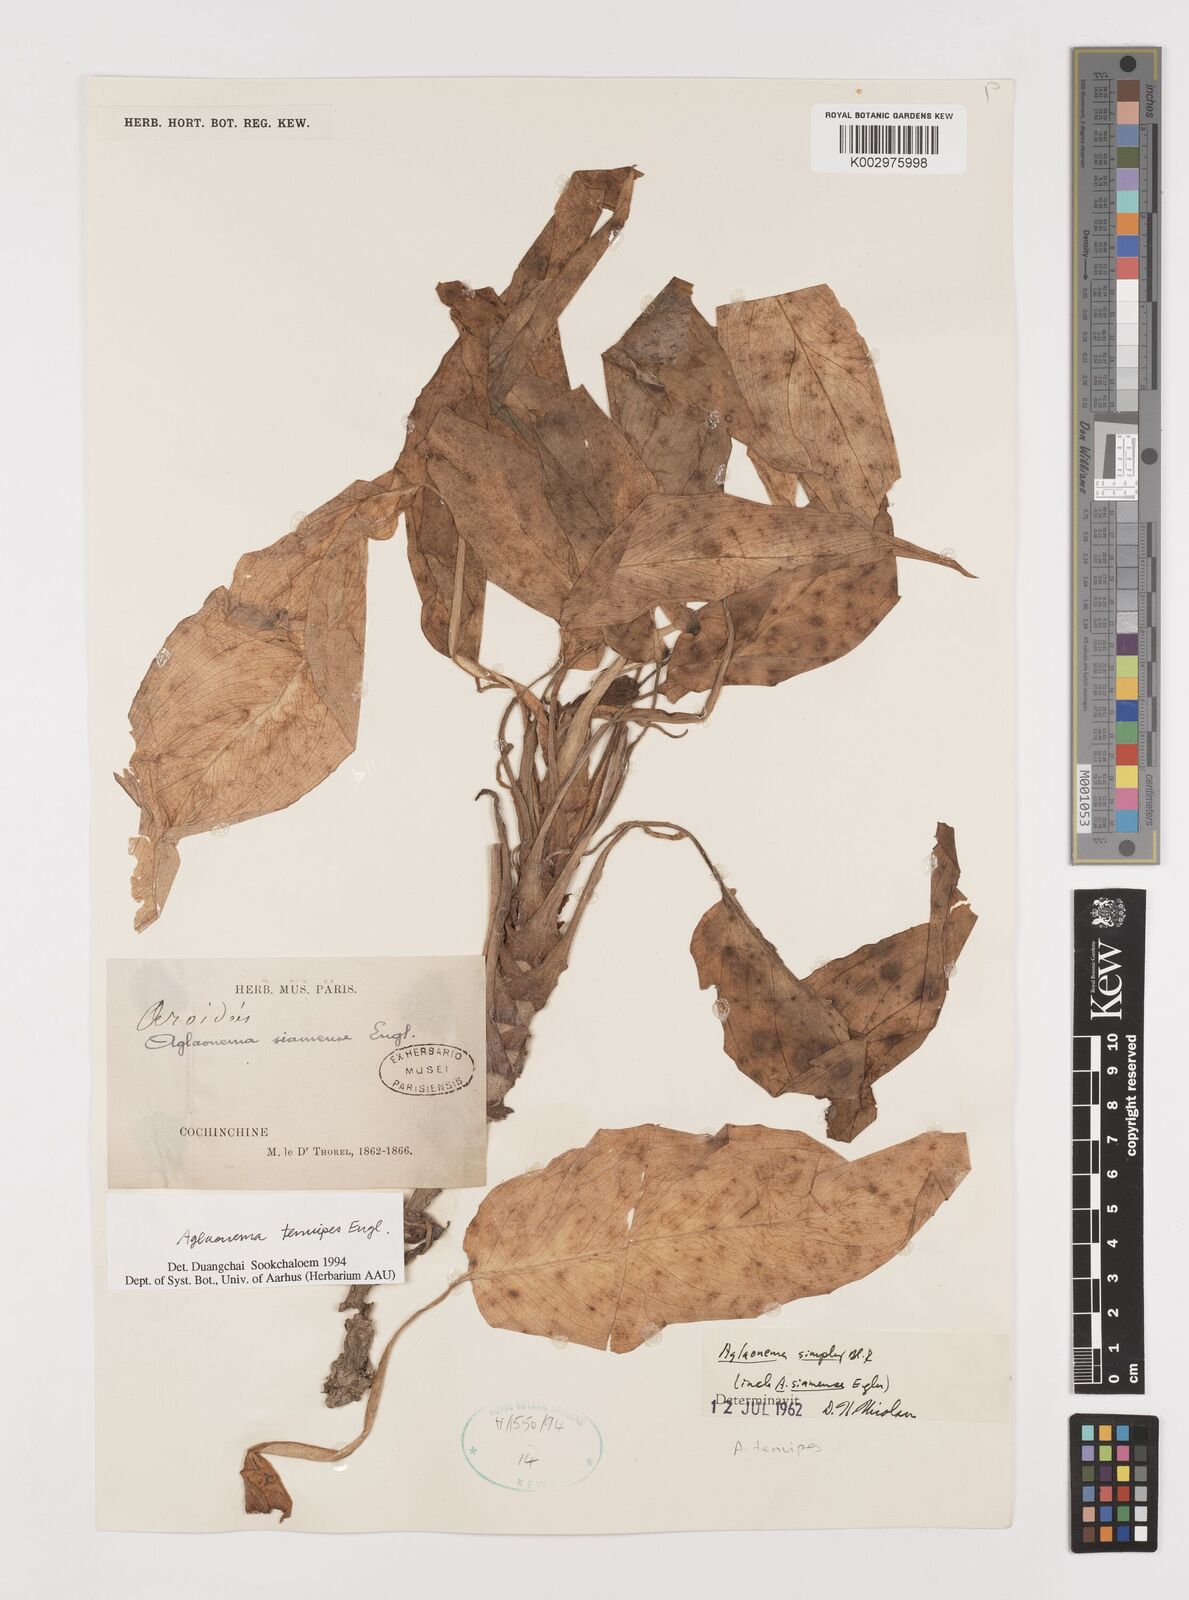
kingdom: Plantae
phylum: Tracheophyta
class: Liliopsida
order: Alismatales
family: Araceae
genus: Aglaonema
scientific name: Aglaonema simplex
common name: Malayan-sword
